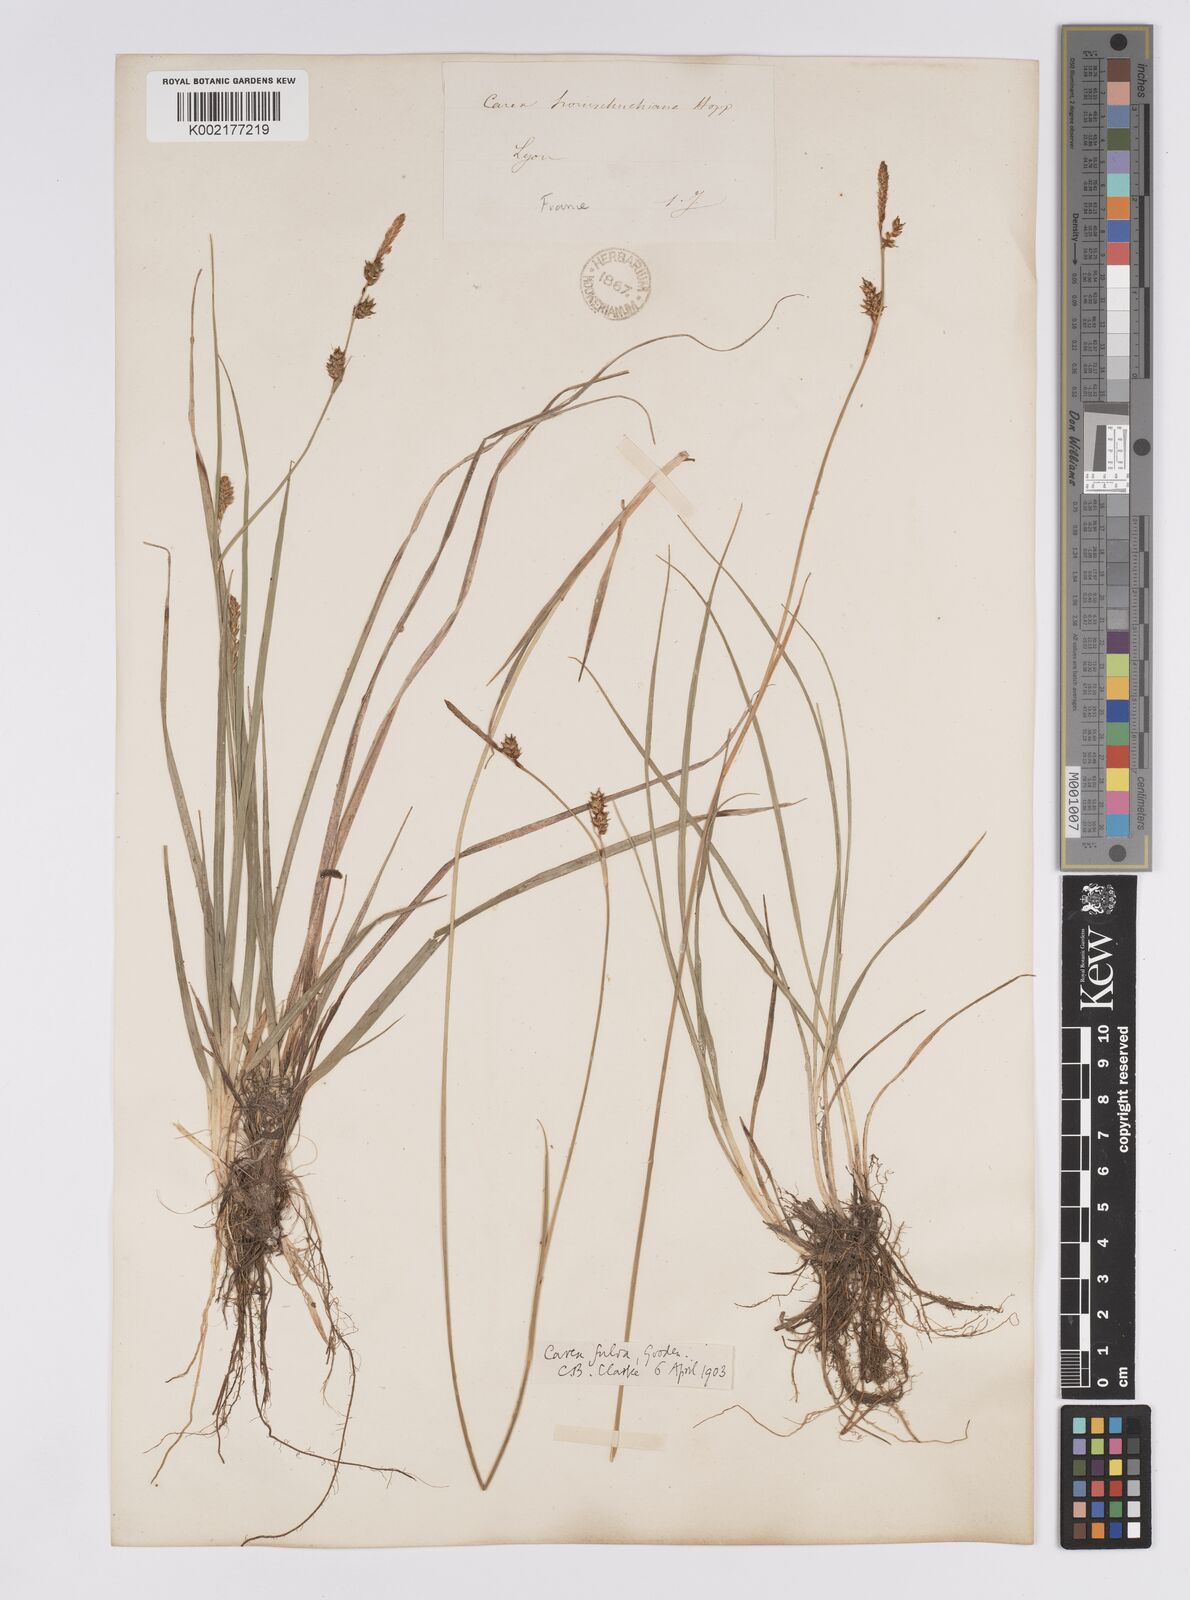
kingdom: Plantae
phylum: Tracheophyta
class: Liliopsida
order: Poales
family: Cyperaceae
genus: Carex
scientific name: Carex hostiana
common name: Tawny sedge
